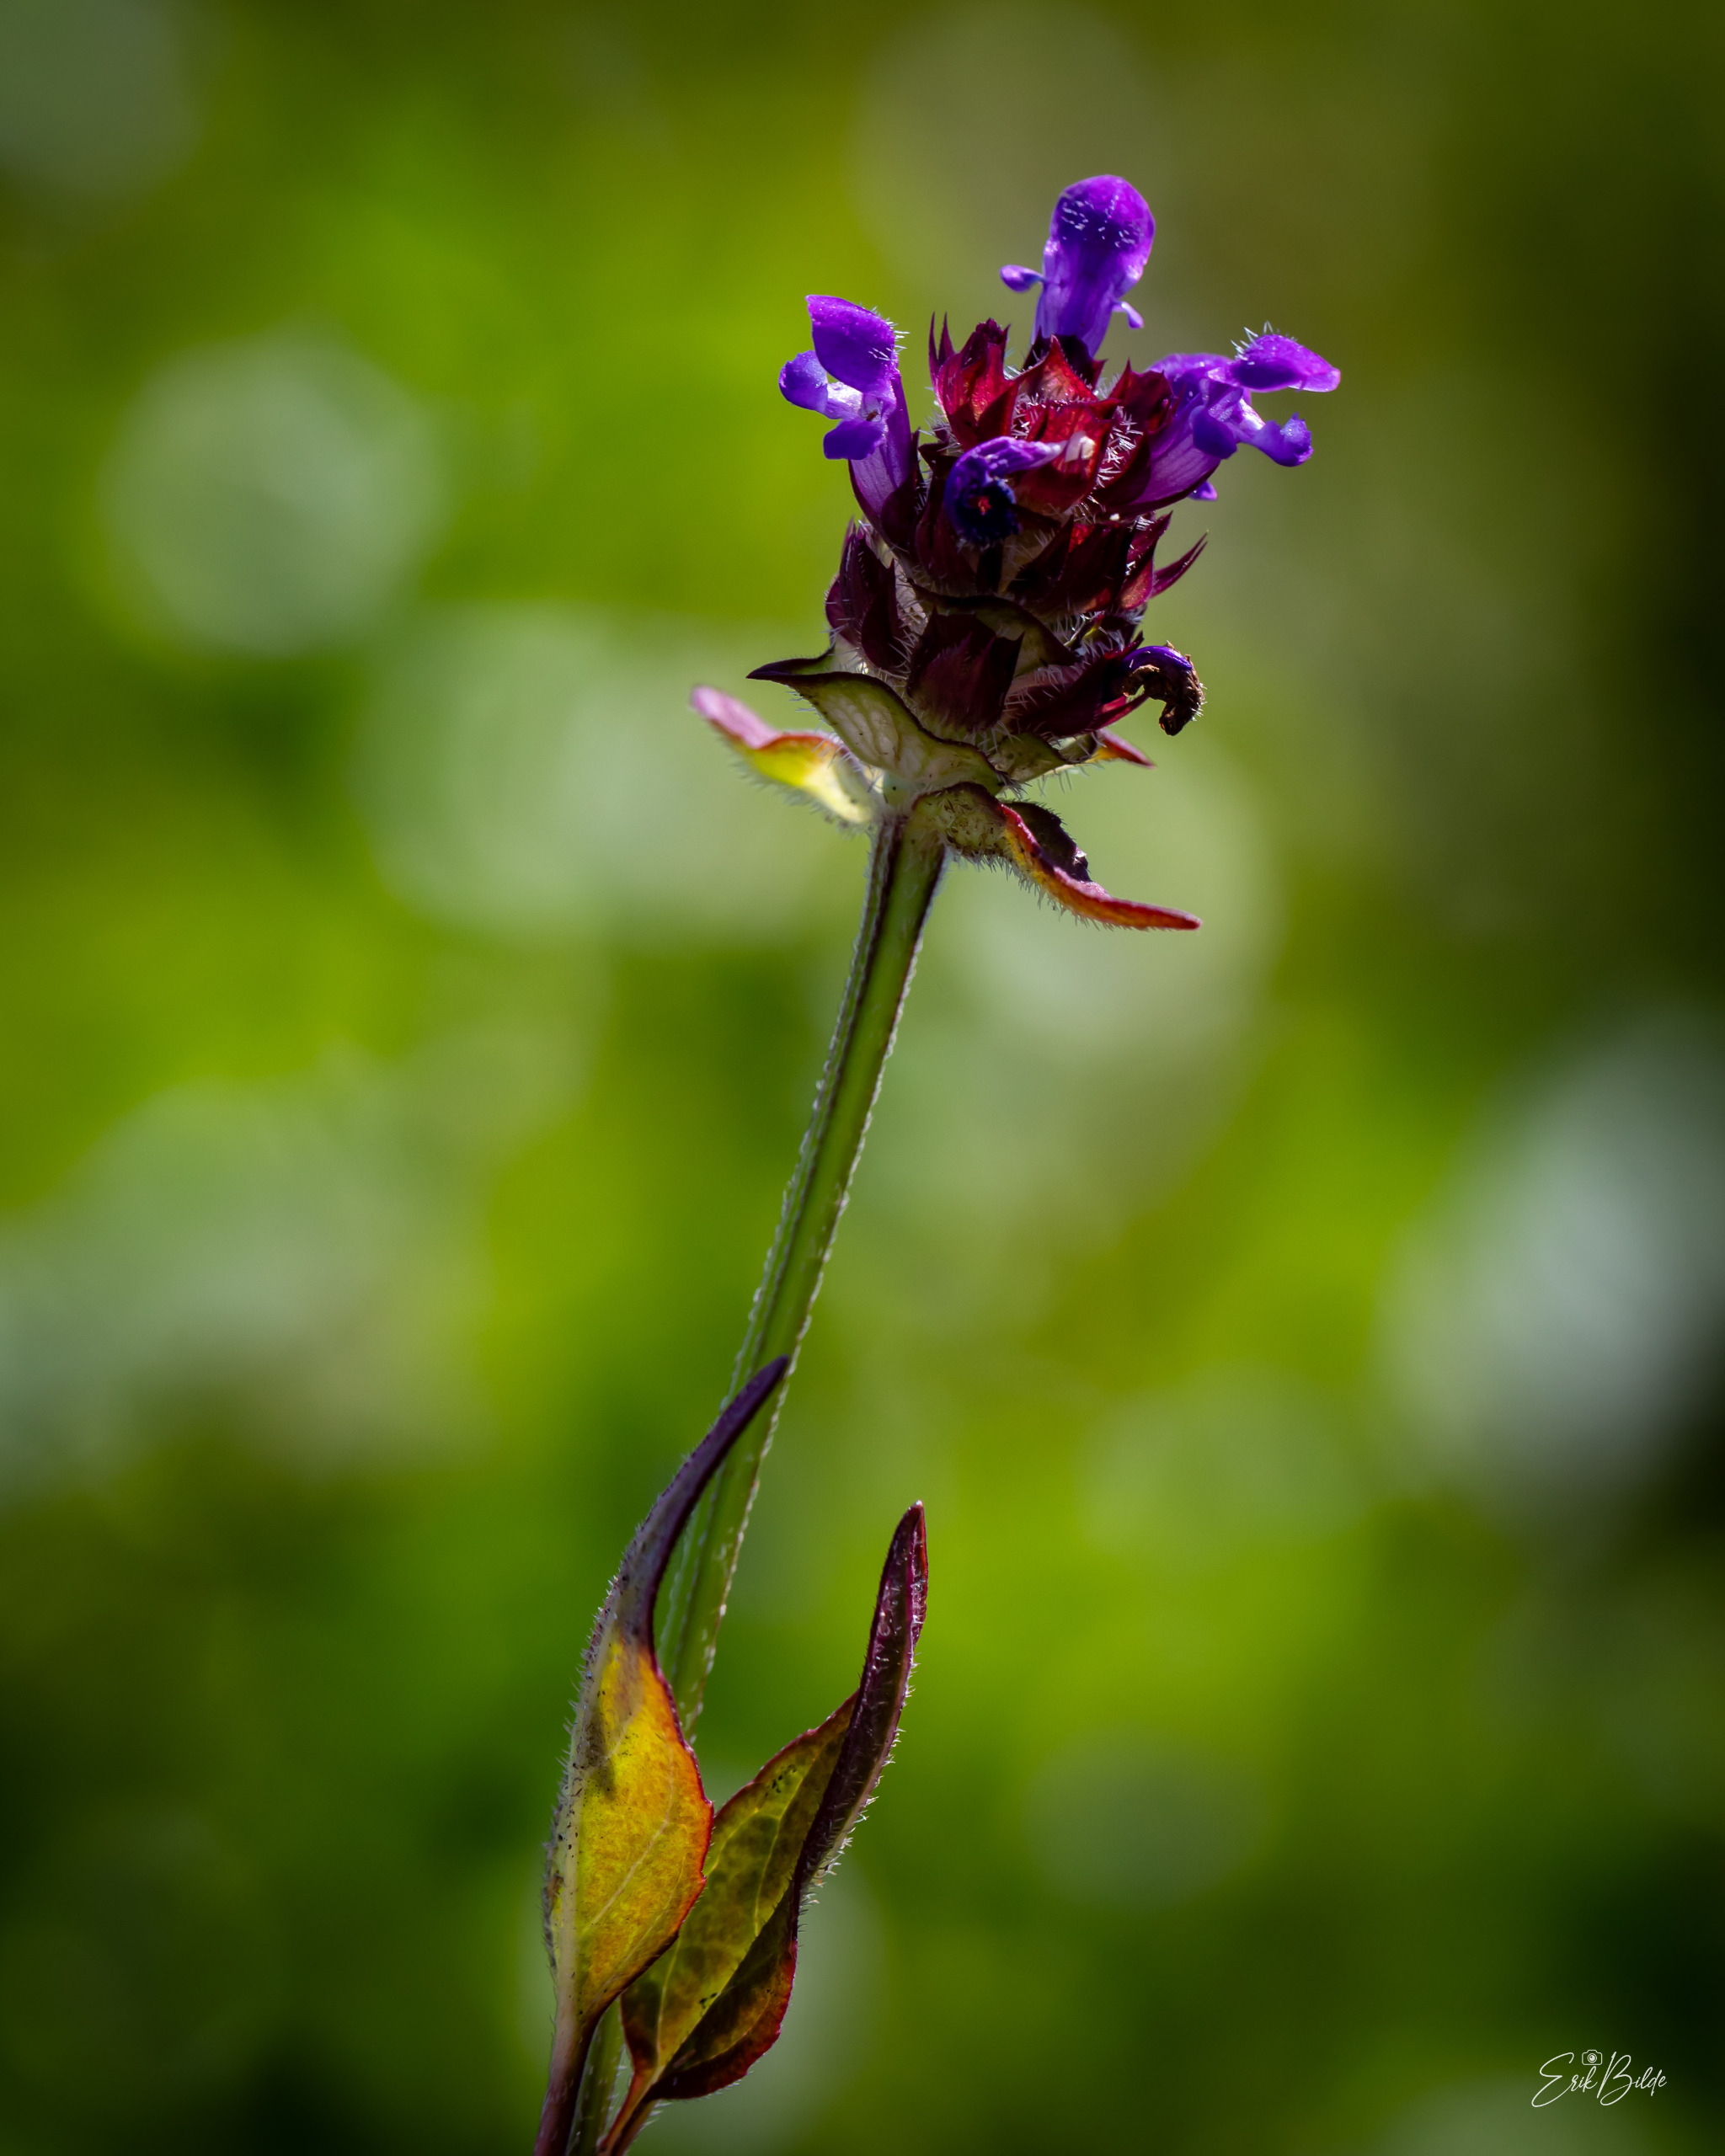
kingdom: Plantae
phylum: Tracheophyta
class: Magnoliopsida
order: Lamiales
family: Lamiaceae
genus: Prunella
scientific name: Prunella vulgaris
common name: Almindelig brunelle
